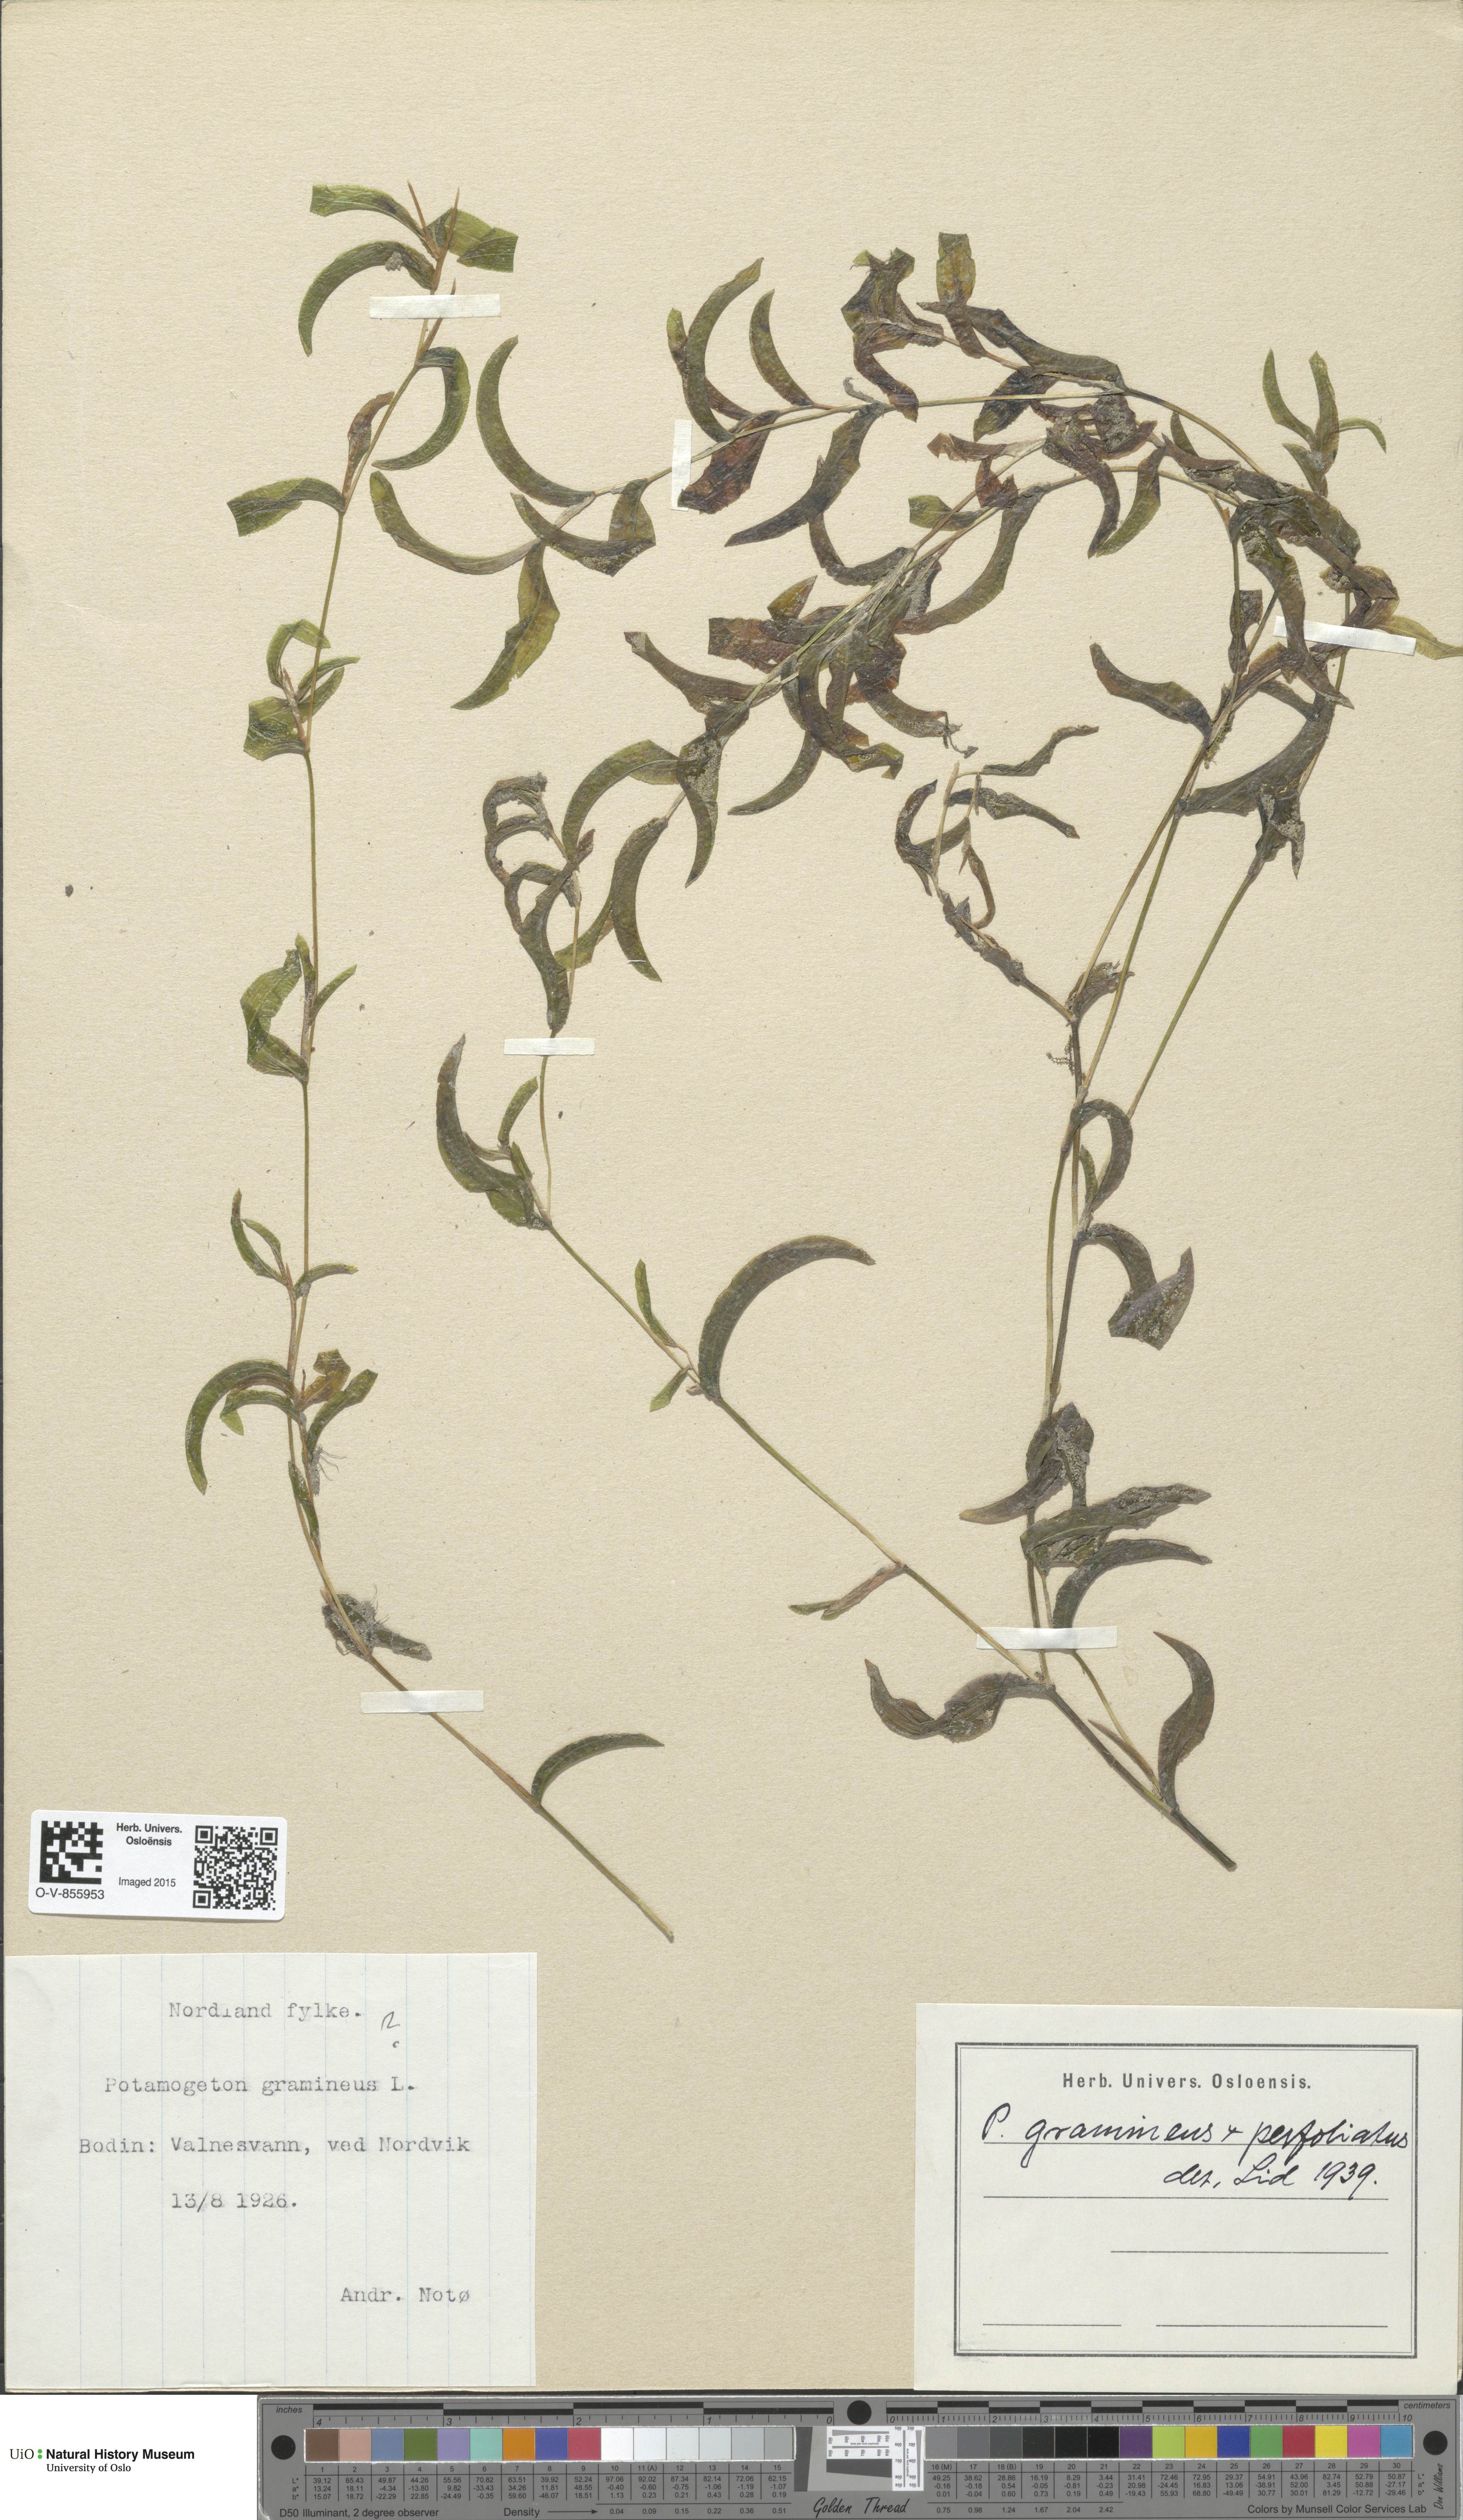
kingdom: Plantae
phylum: Tracheophyta
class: Liliopsida
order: Alismatales
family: Potamogetonaceae
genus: Potamogeton
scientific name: Potamogeton
